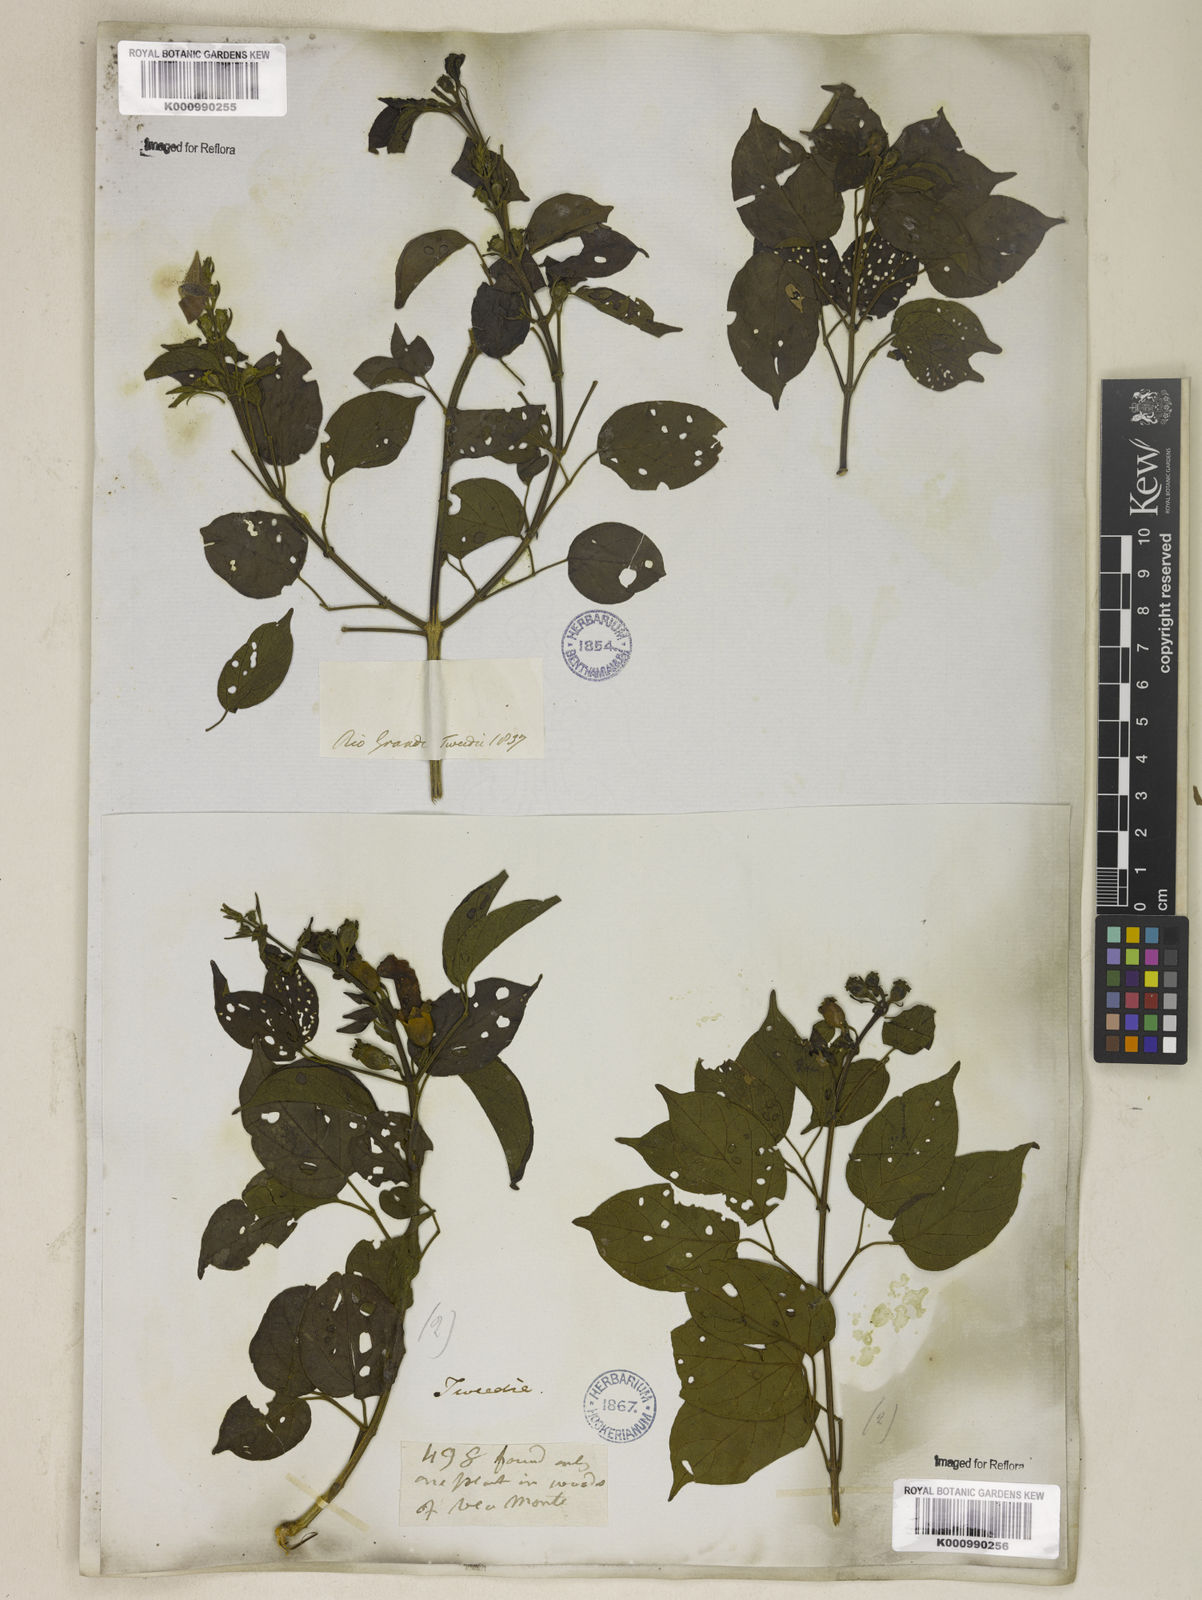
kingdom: Plantae
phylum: Tracheophyta
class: Magnoliopsida
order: Lamiales
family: Bignoniaceae
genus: Amphilophium
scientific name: Amphilophium paniculatum
